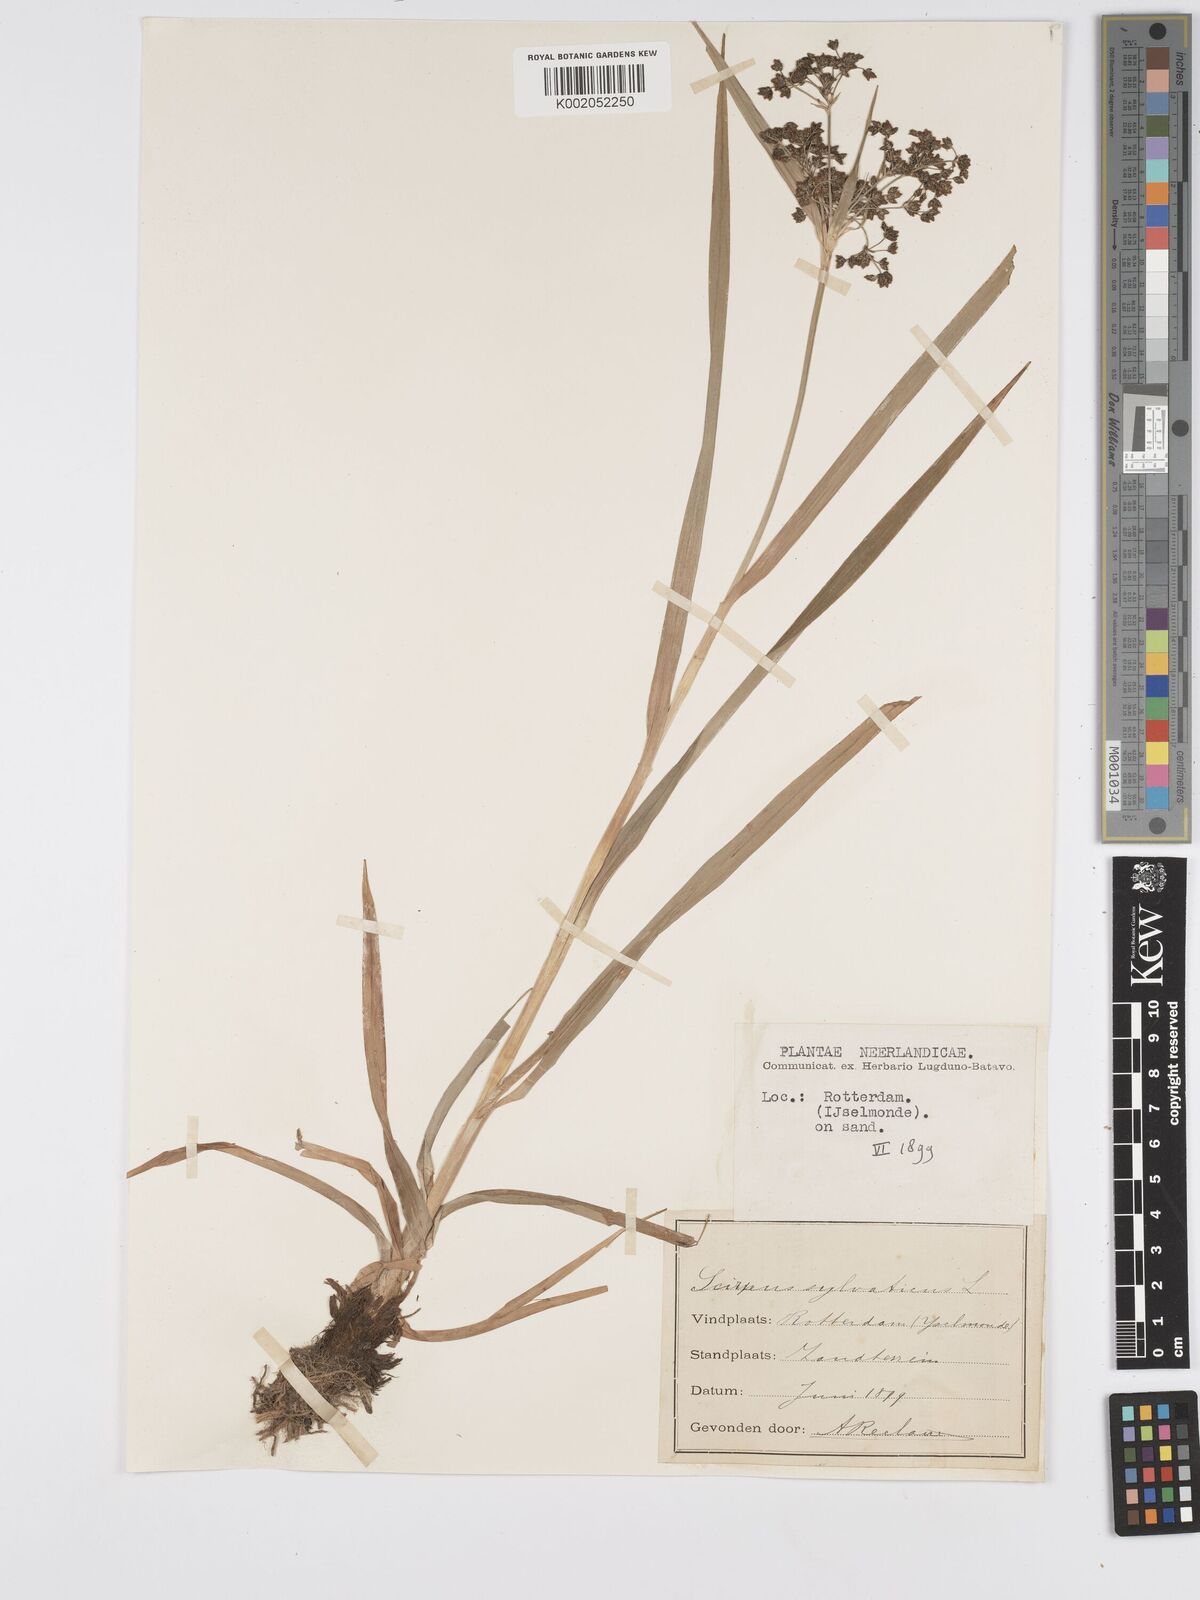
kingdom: Plantae
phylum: Tracheophyta
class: Liliopsida
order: Poales
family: Cyperaceae
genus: Scirpus
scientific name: Scirpus sylvaticus
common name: Wood club-rush
